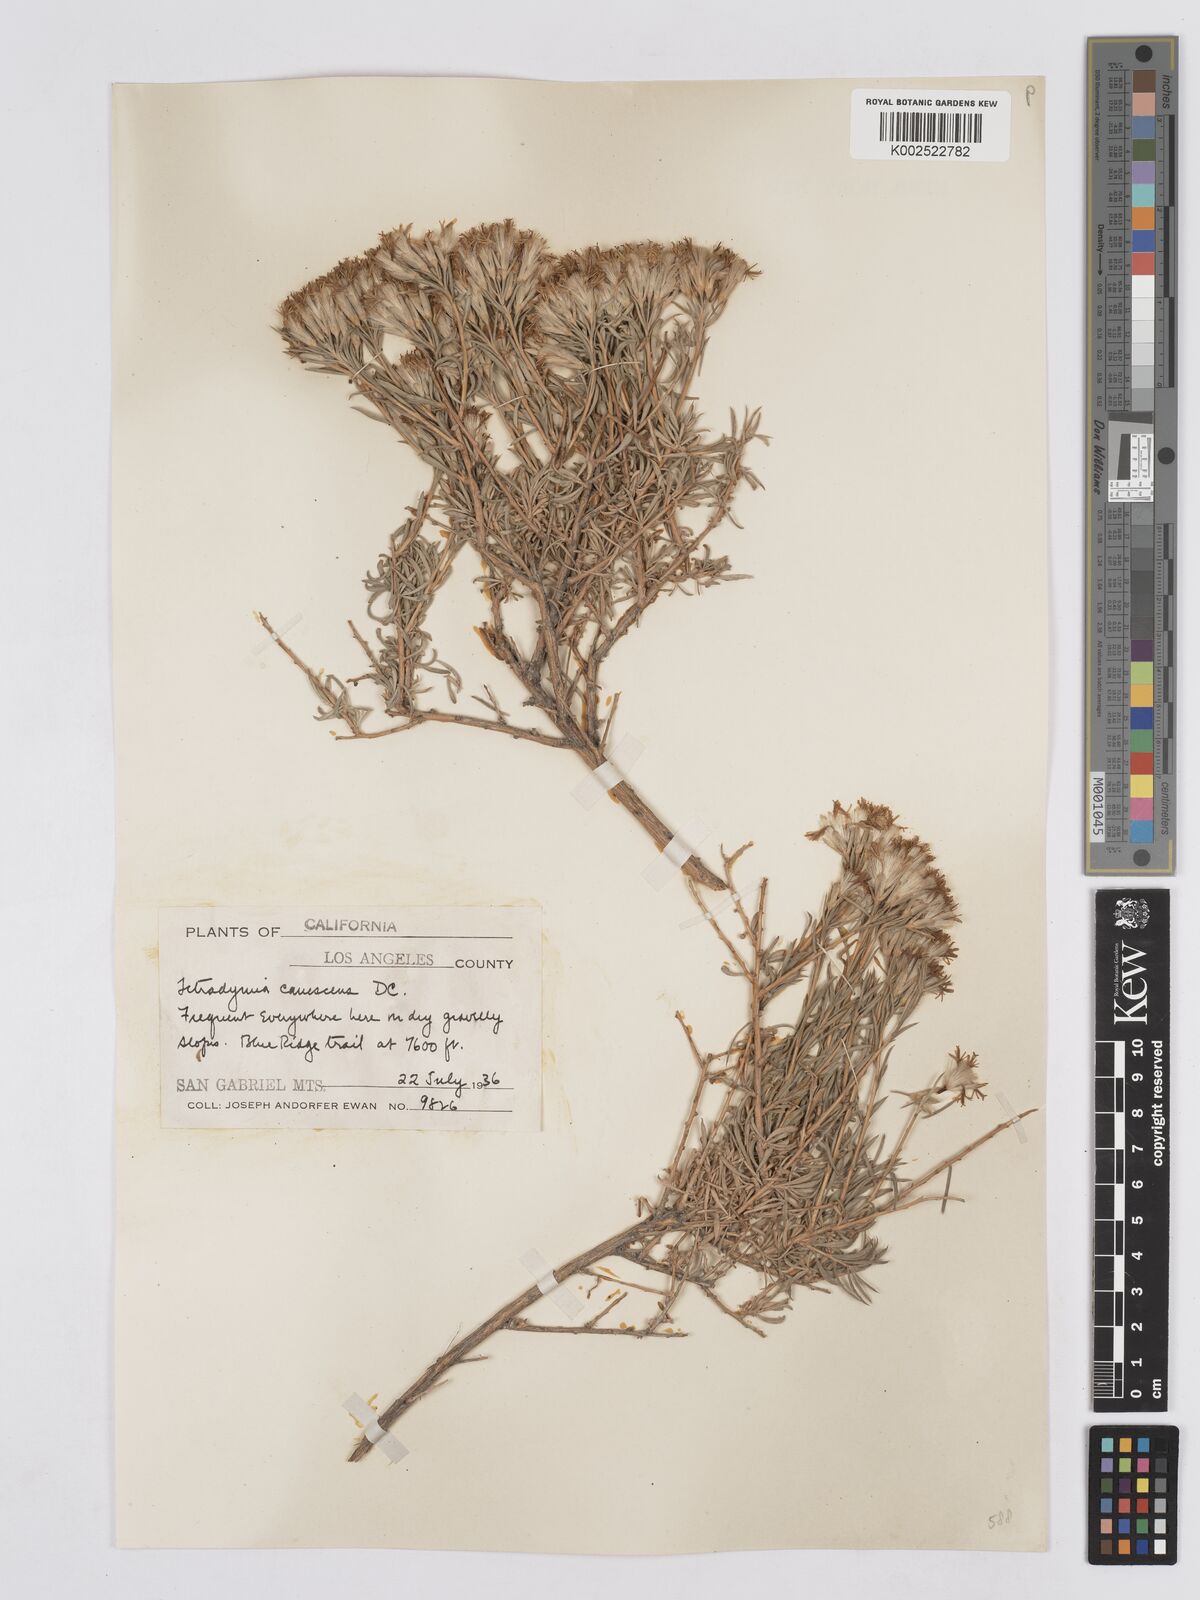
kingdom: Plantae
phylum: Tracheophyta
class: Magnoliopsida
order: Asterales
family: Asteraceae
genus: Tetradymia
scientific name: Tetradymia canescens
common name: Spineless horsebrush
